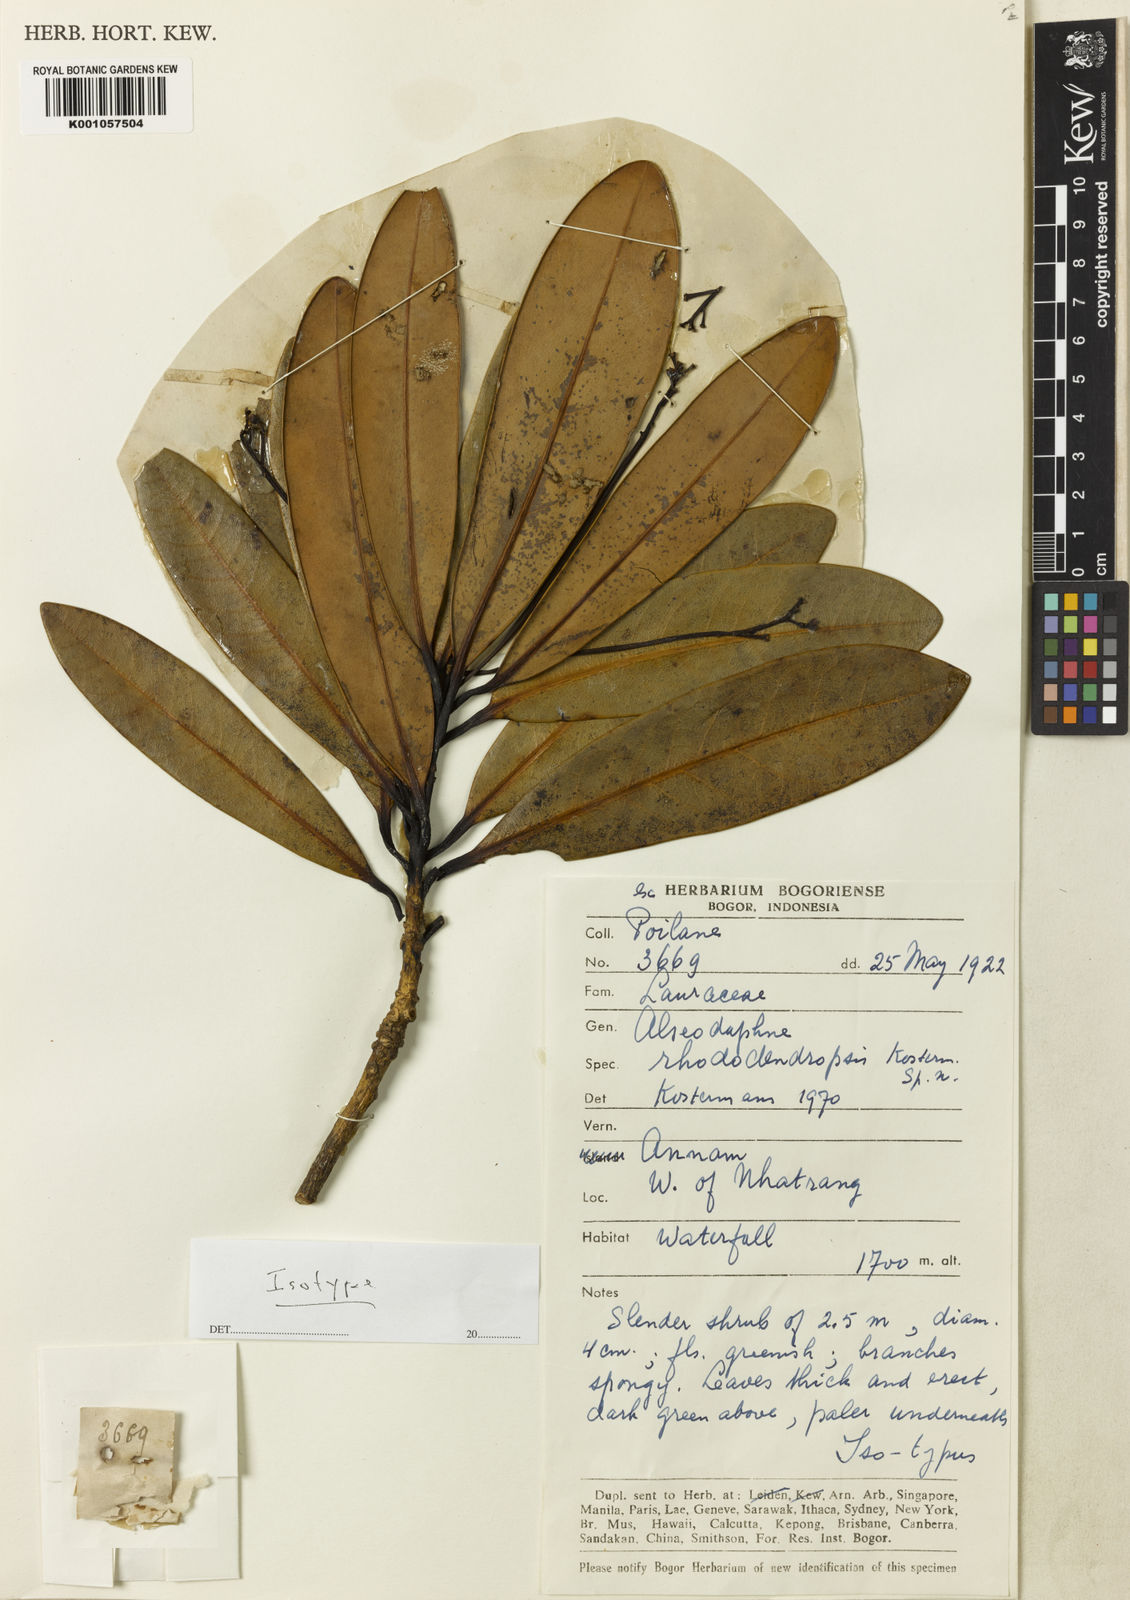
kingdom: Plantae
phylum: Tracheophyta
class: Magnoliopsida
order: Laurales
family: Lauraceae
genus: Alseodaphne
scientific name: Alseodaphne rhododendropsis
